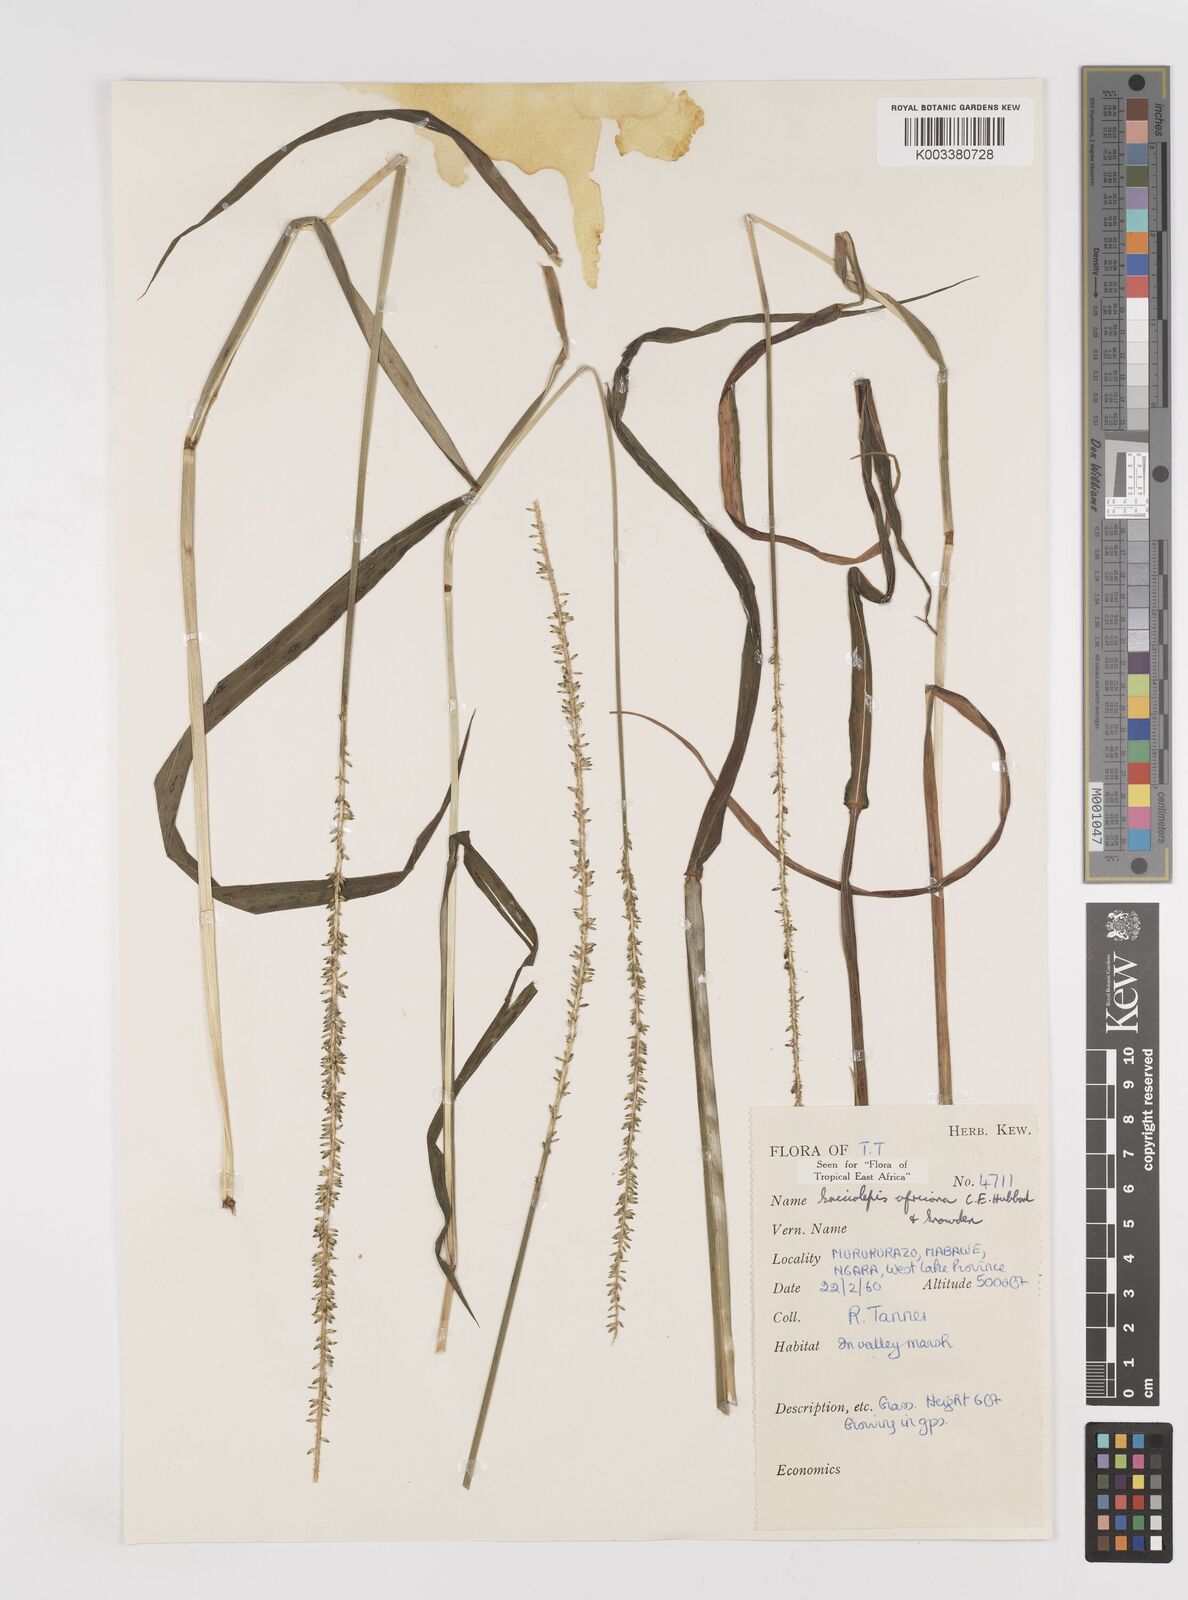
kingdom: Plantae
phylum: Tracheophyta
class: Liliopsida
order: Poales
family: Poaceae
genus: Sacciolepis
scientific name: Sacciolepis africana
